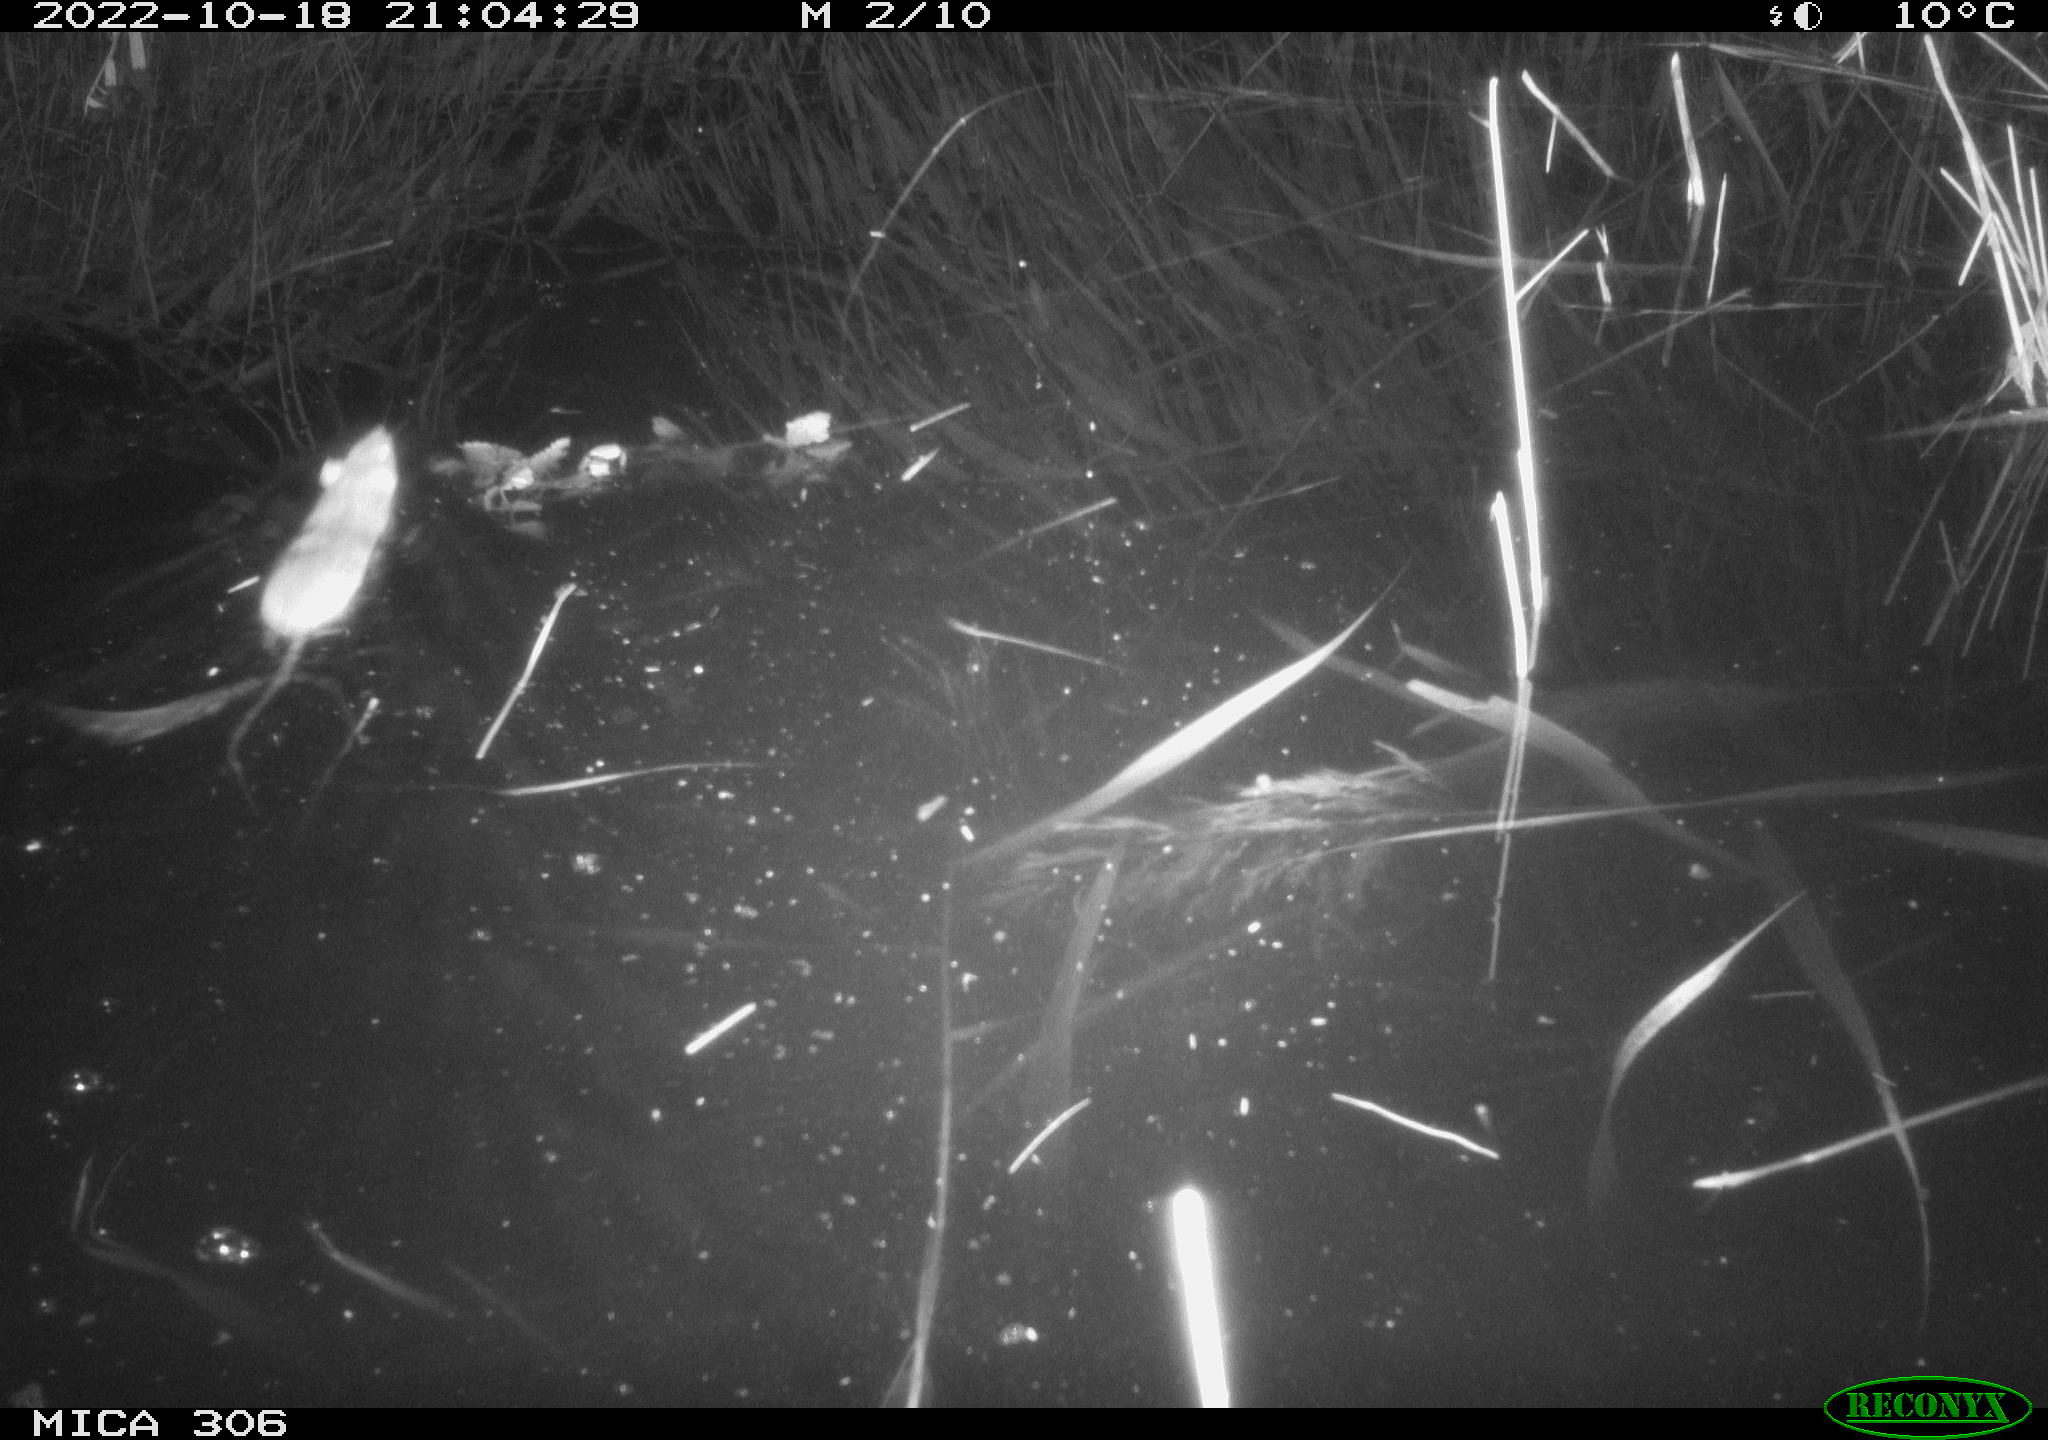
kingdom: Animalia
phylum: Chordata
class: Mammalia
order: Rodentia
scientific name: Rodentia
